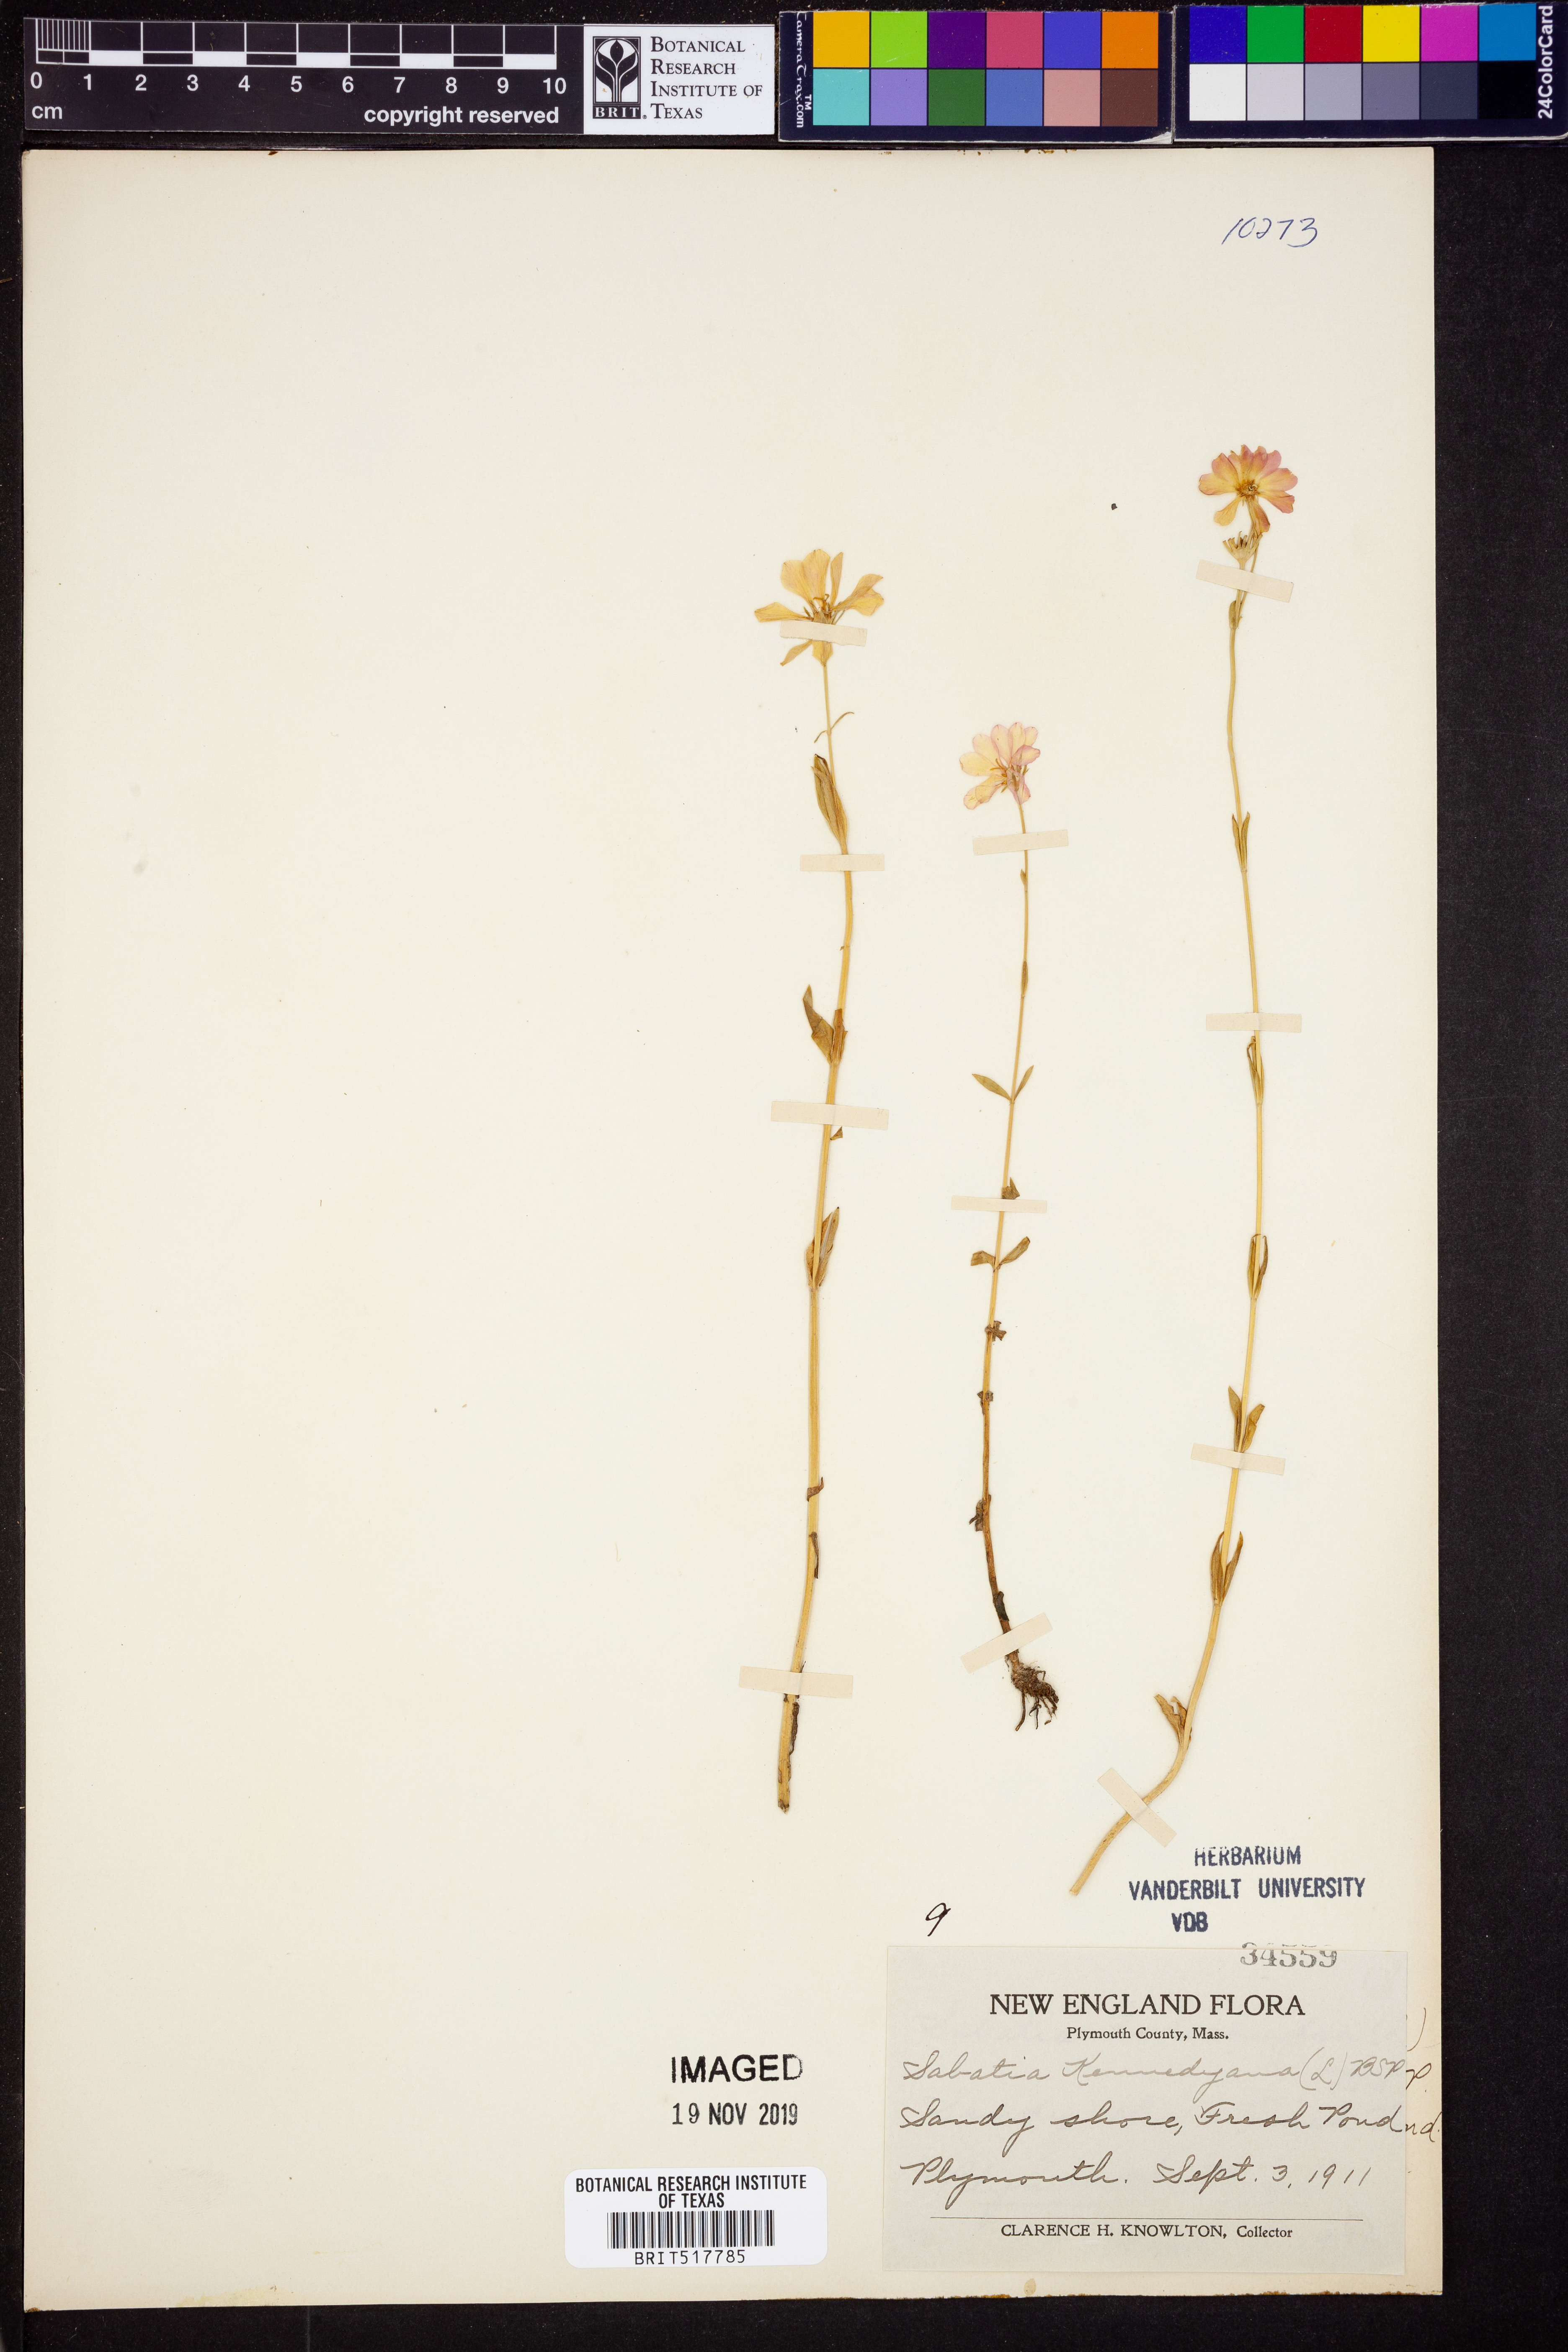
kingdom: Plantae
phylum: Tracheophyta
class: Magnoliopsida
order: Gentianales
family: Gentianaceae
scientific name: Gentianaceae
